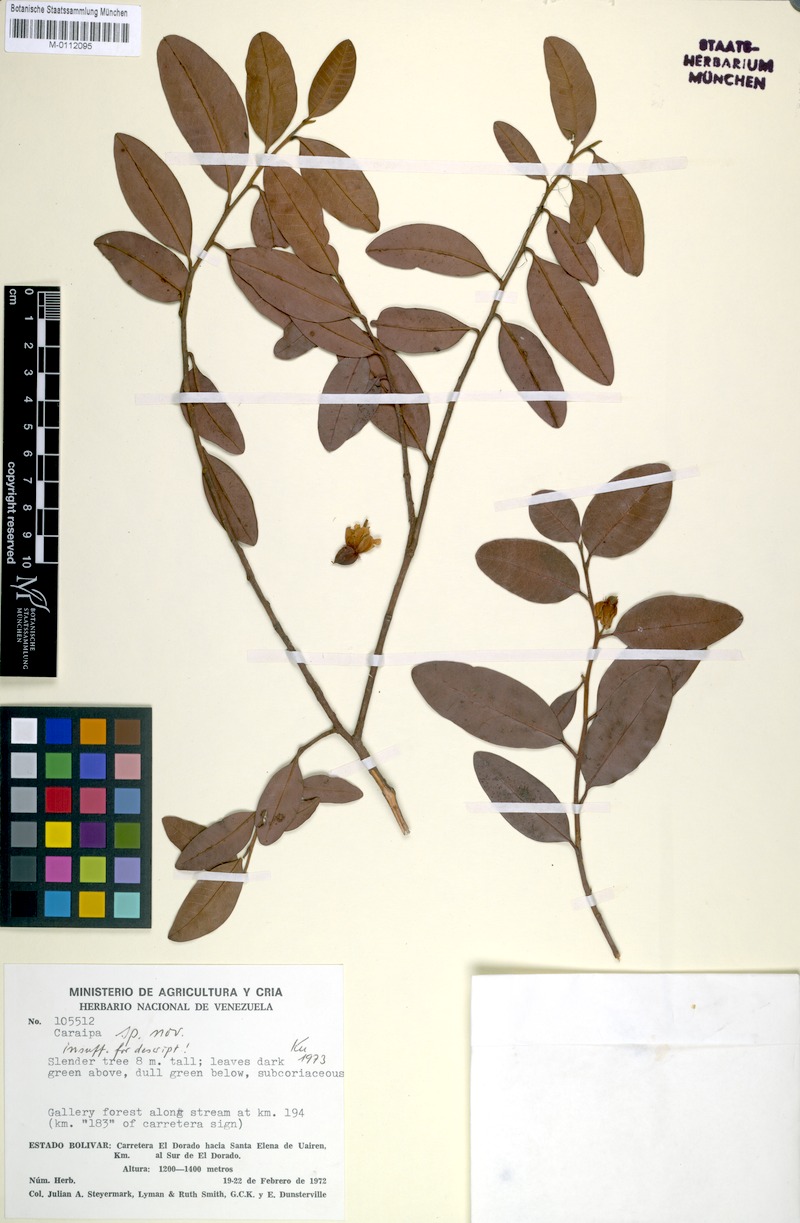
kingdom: Plantae
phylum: Tracheophyta
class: Magnoliopsida
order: Malpighiales
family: Calophyllaceae
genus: Caraipa
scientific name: Caraipa
